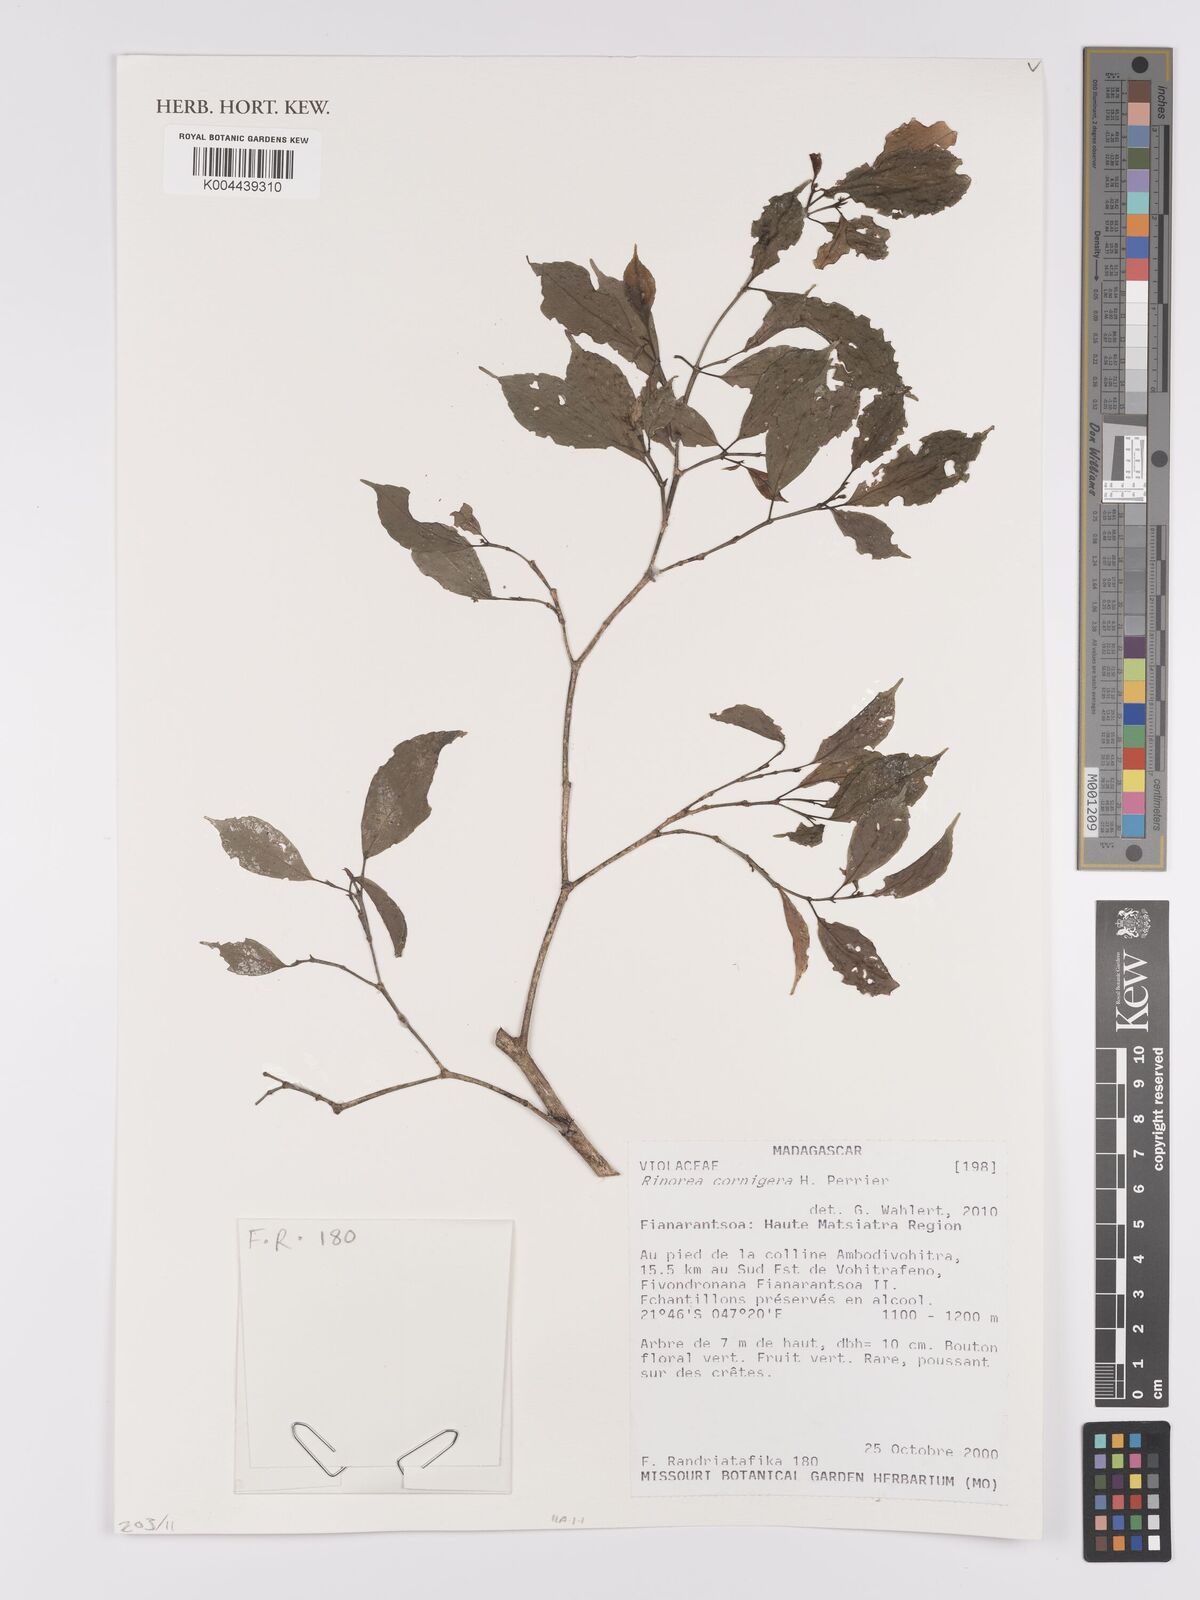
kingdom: Plantae
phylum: Tracheophyta
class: Magnoliopsida
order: Malpighiales
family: Violaceae
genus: Rinorea
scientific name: Rinorea cornigera
